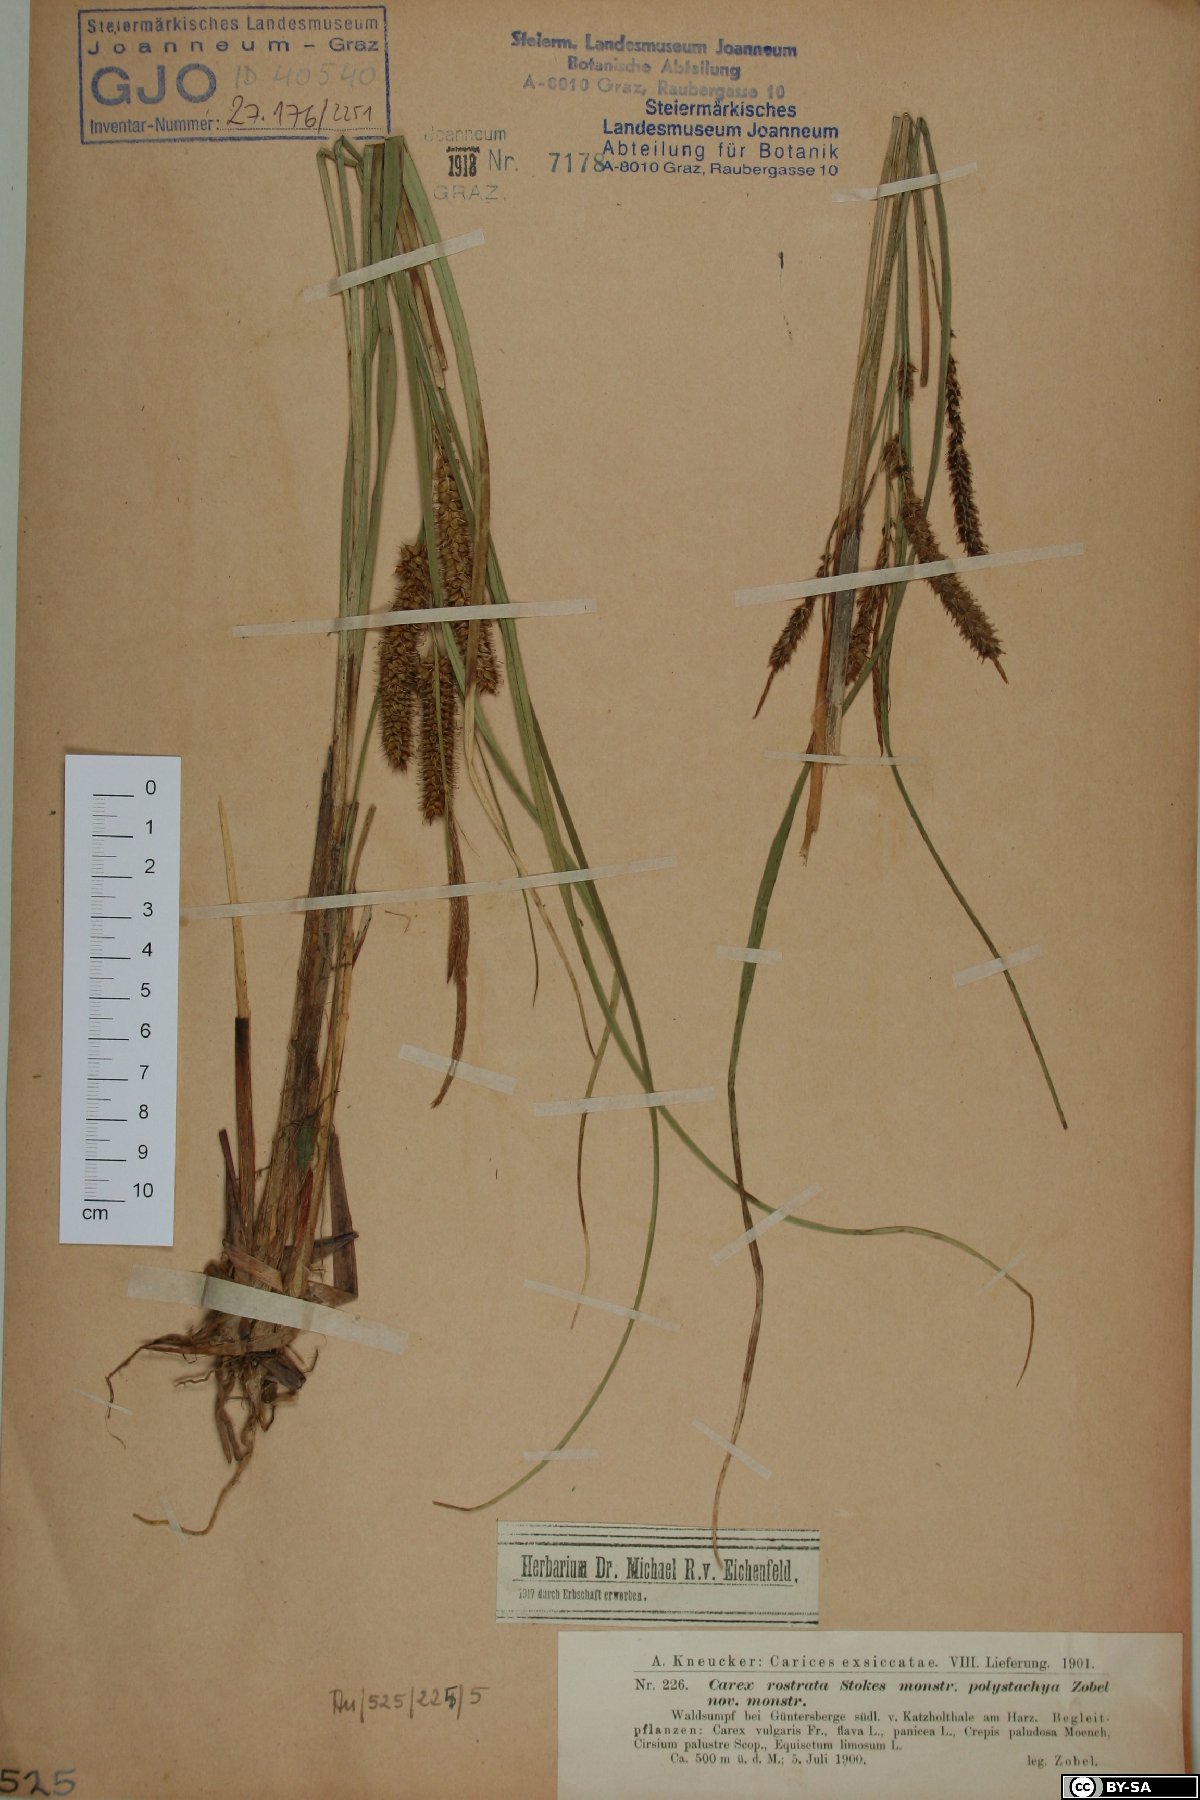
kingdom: Plantae
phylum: Tracheophyta
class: Liliopsida
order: Poales
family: Cyperaceae
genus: Carex
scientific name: Carex rostrata
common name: Bottle sedge
